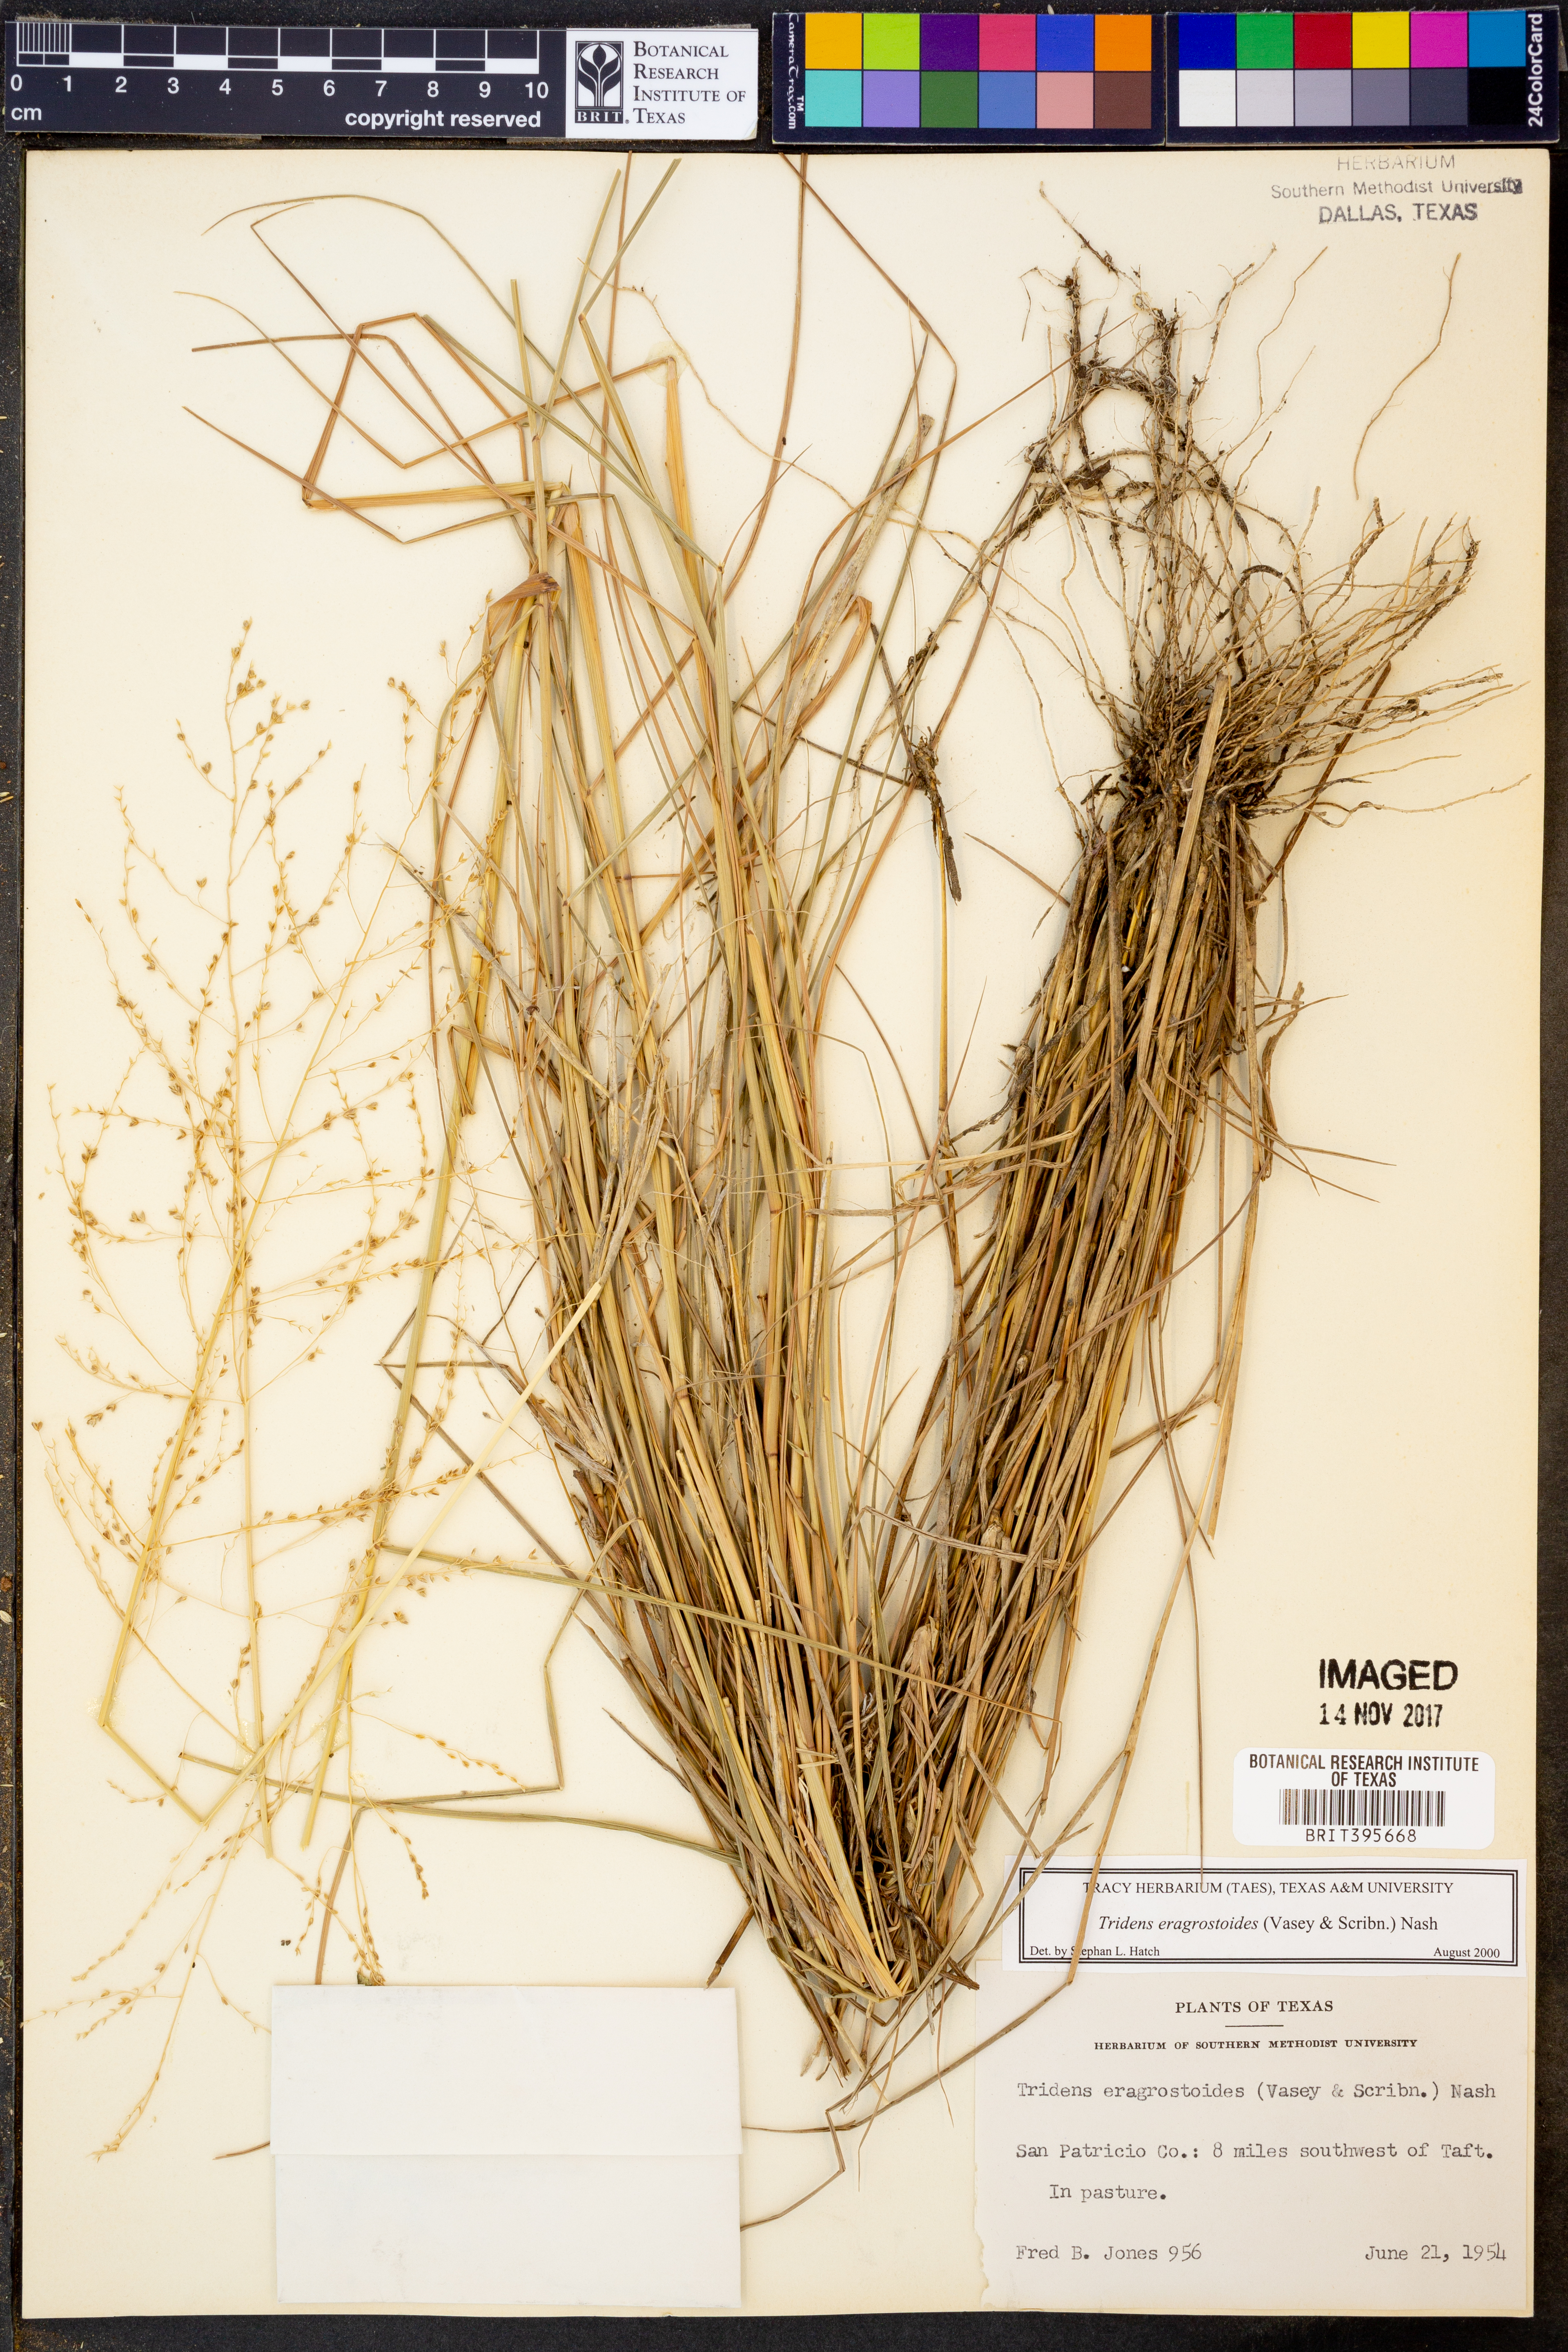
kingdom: Plantae
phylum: Tracheophyta
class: Liliopsida
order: Poales
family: Poaceae
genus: Triplasiella
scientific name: Triplasiella eragrostoides
